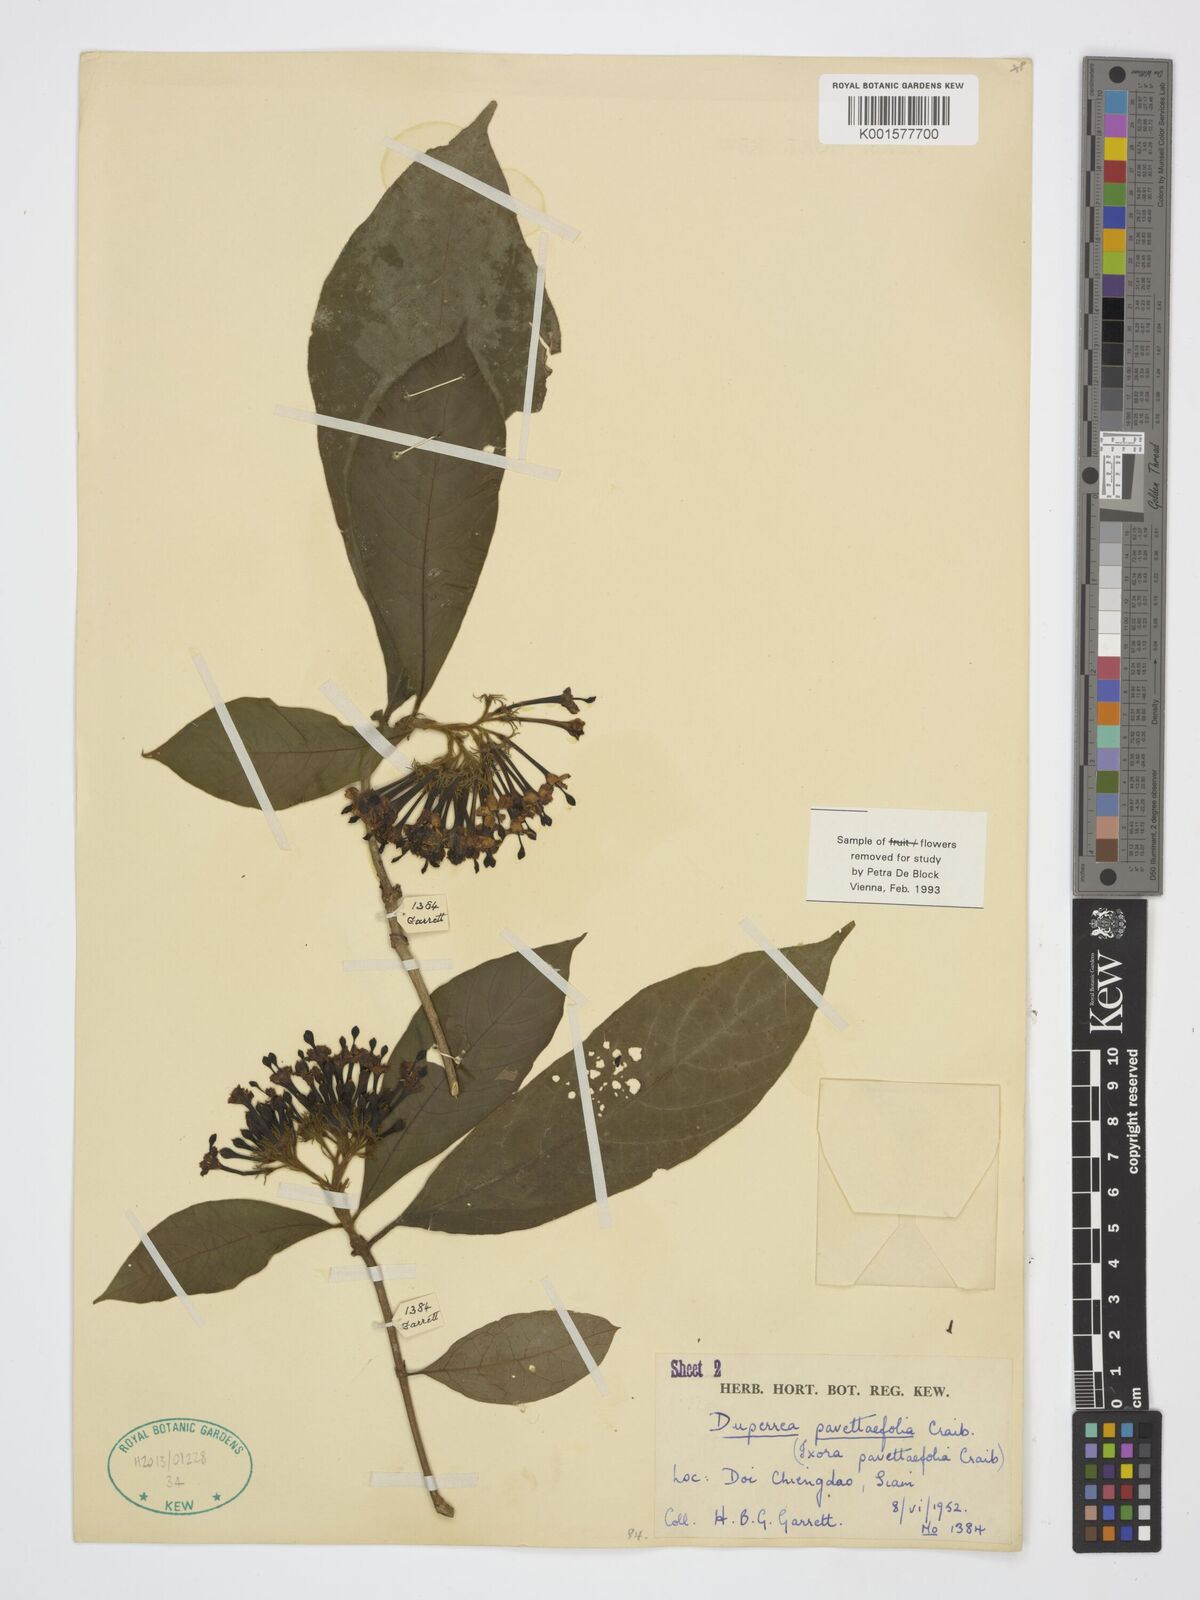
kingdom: Plantae
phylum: Tracheophyta
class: Magnoliopsida
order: Gentianales
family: Rubiaceae
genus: Duperrea
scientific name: Duperrea pavettifolia
